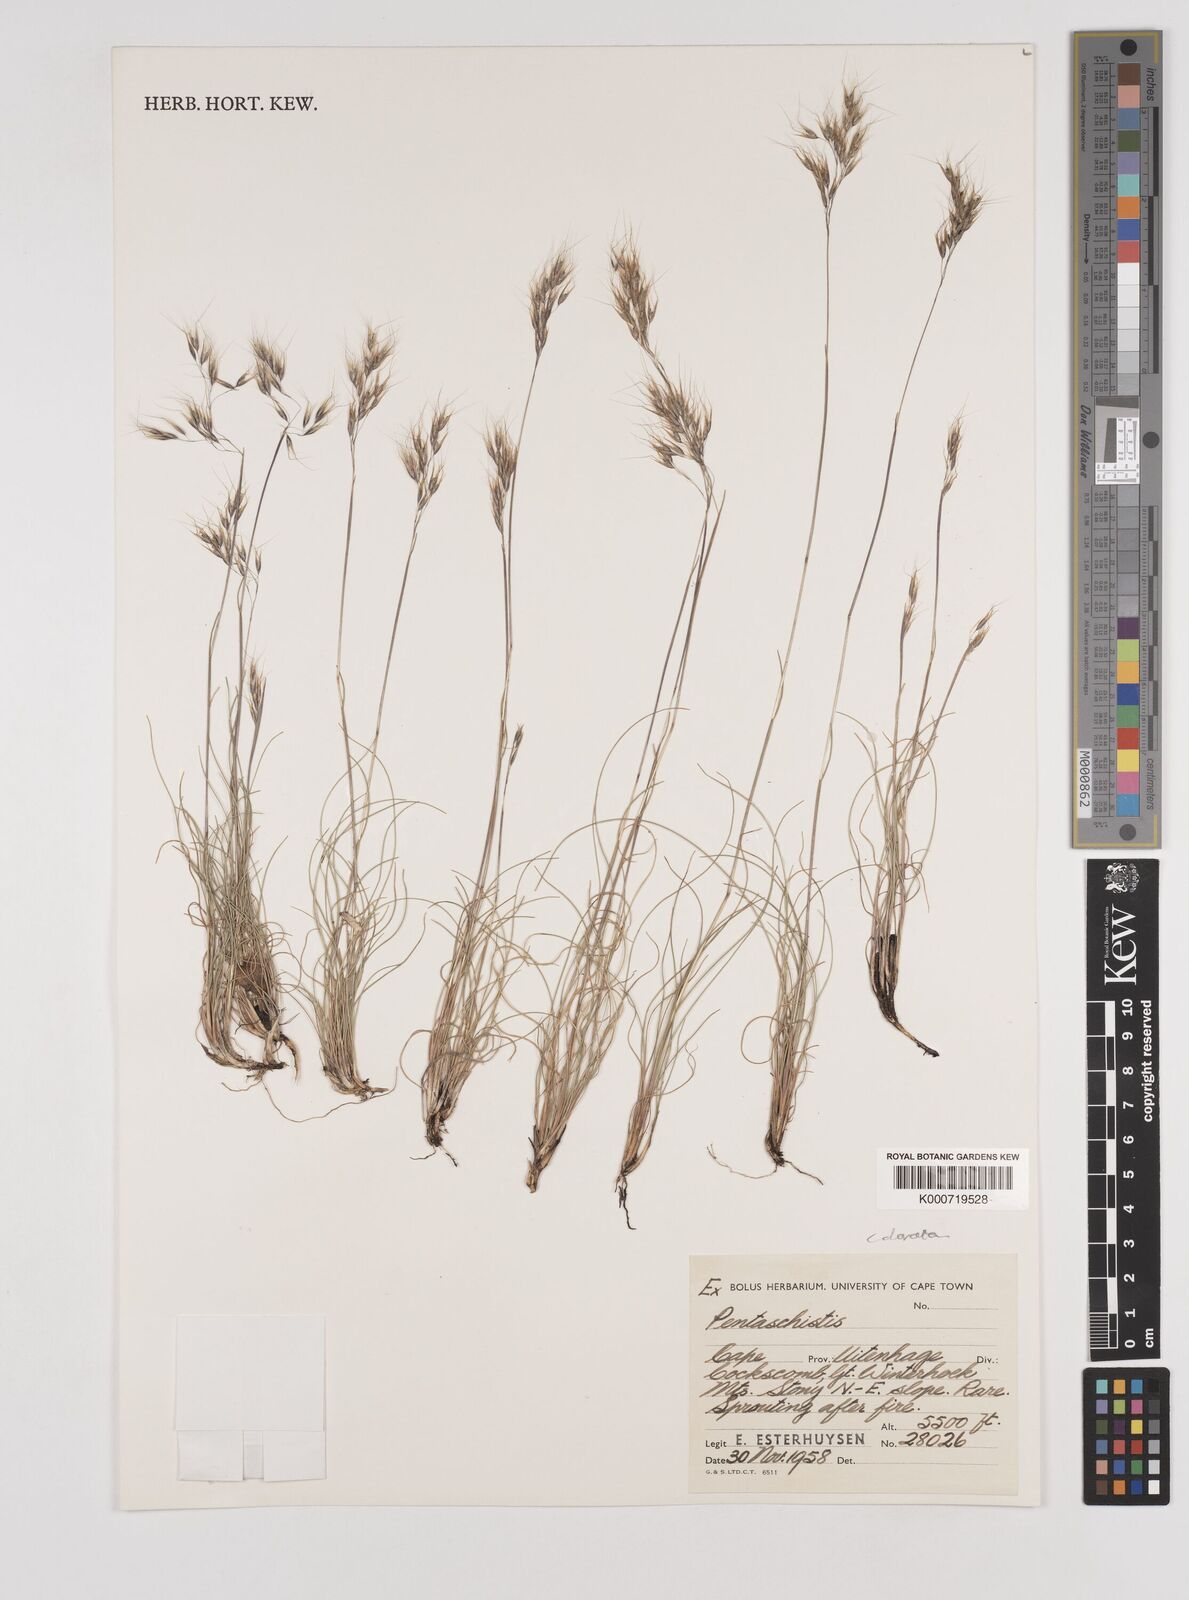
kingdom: Plantae
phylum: Tracheophyta
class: Liliopsida
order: Poales
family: Poaceae
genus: Pentameris
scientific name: Pentameris colorata
